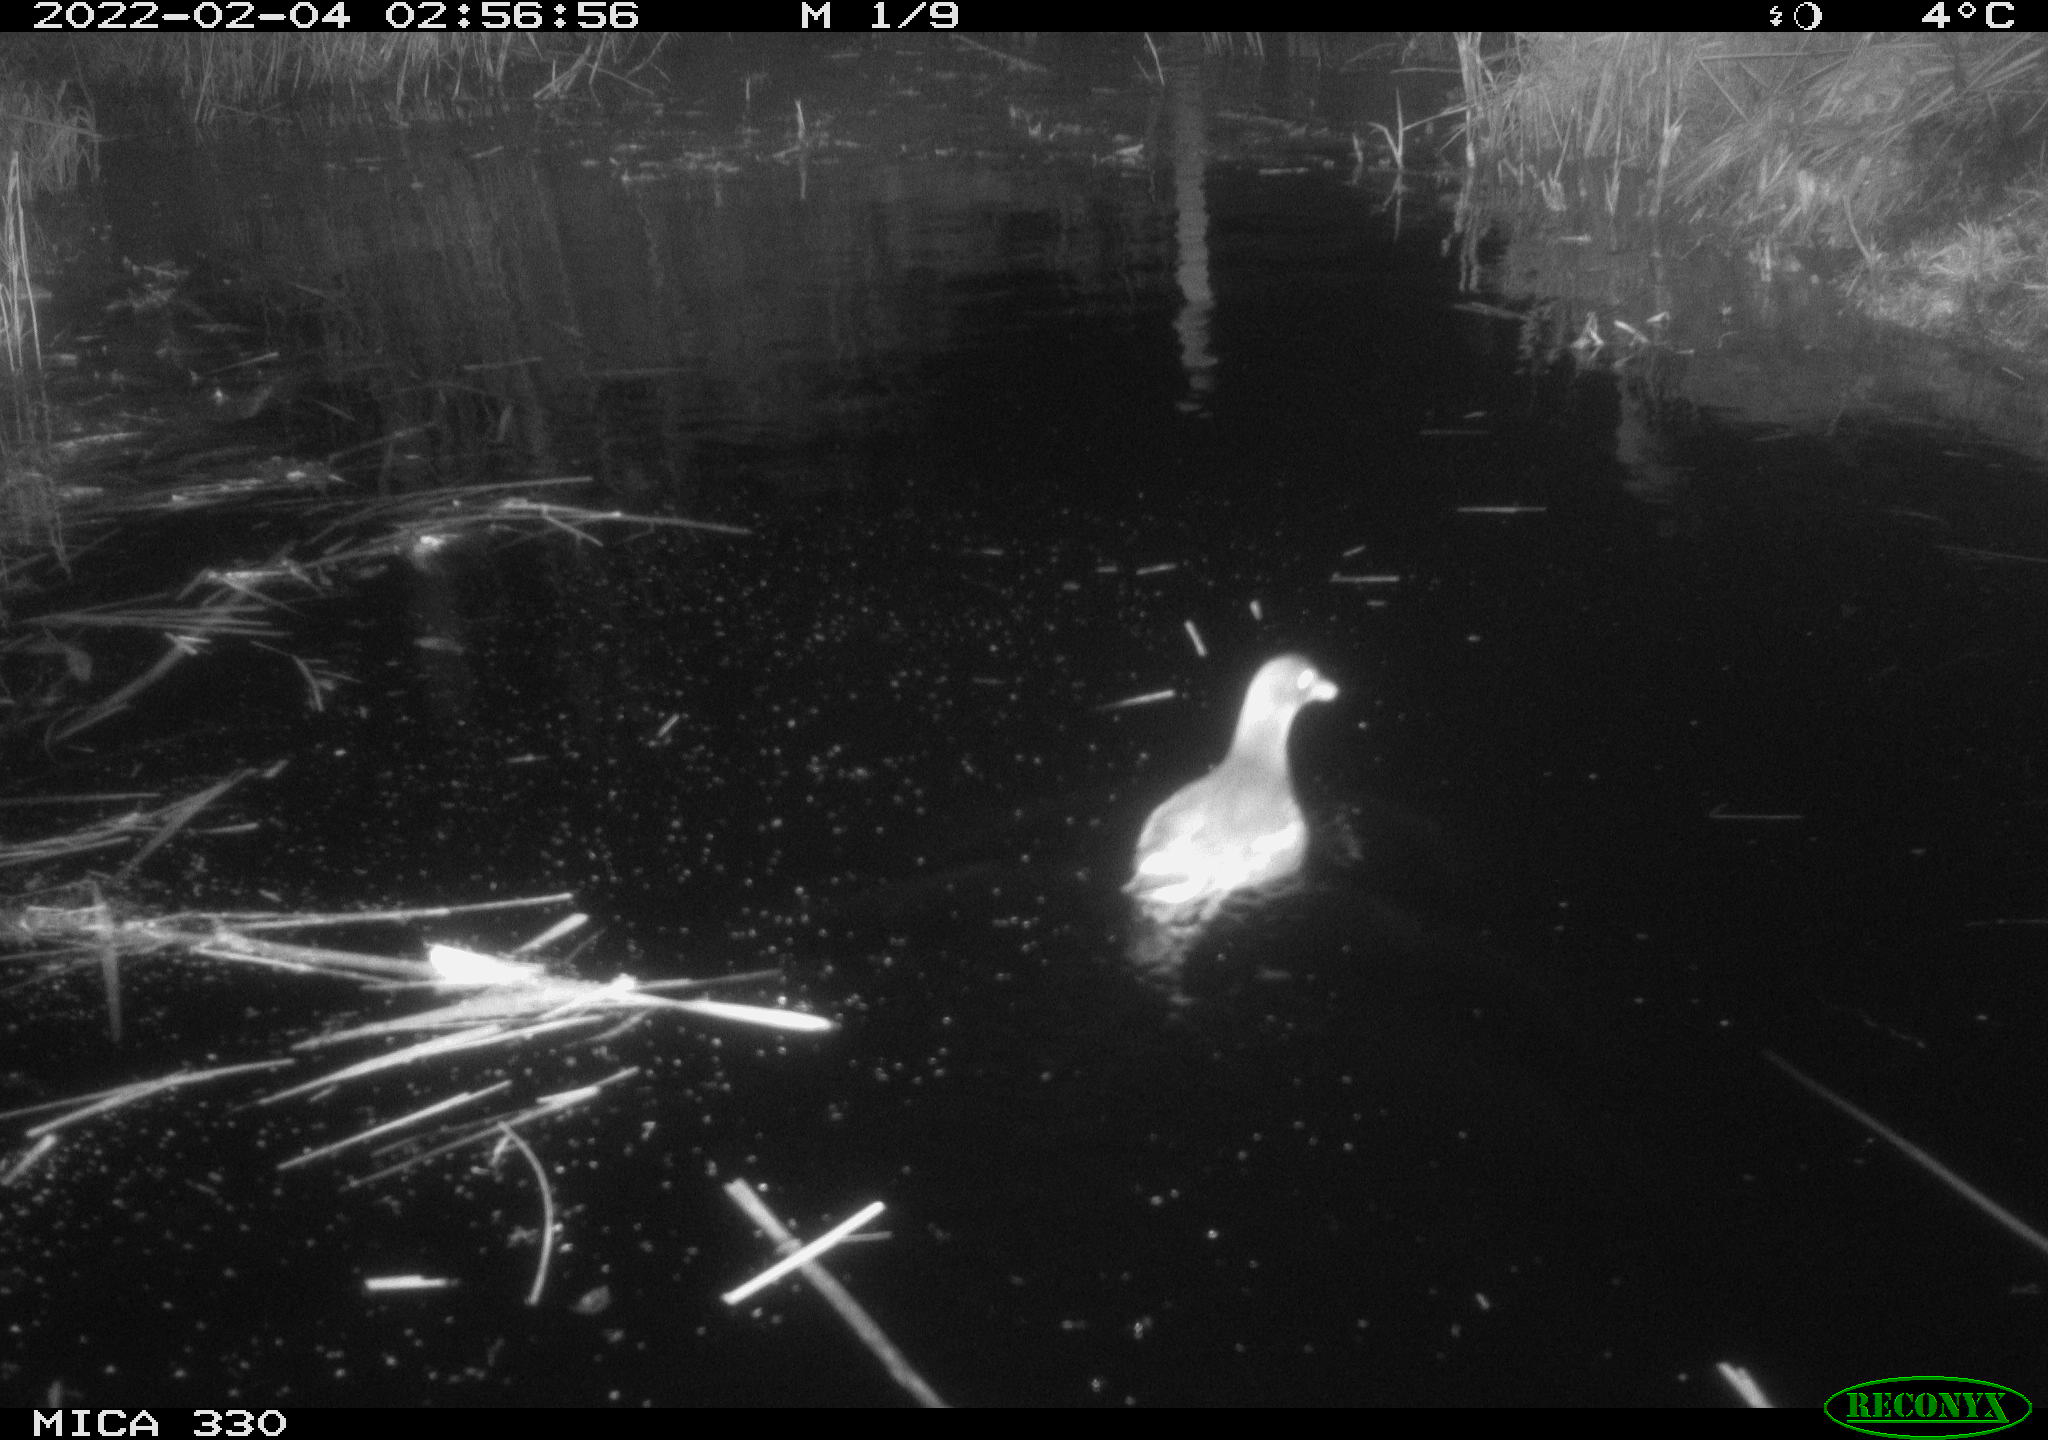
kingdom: Animalia
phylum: Chordata
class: Aves
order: Gruiformes
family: Rallidae
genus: Gallinula
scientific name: Gallinula chloropus
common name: Common moorhen
